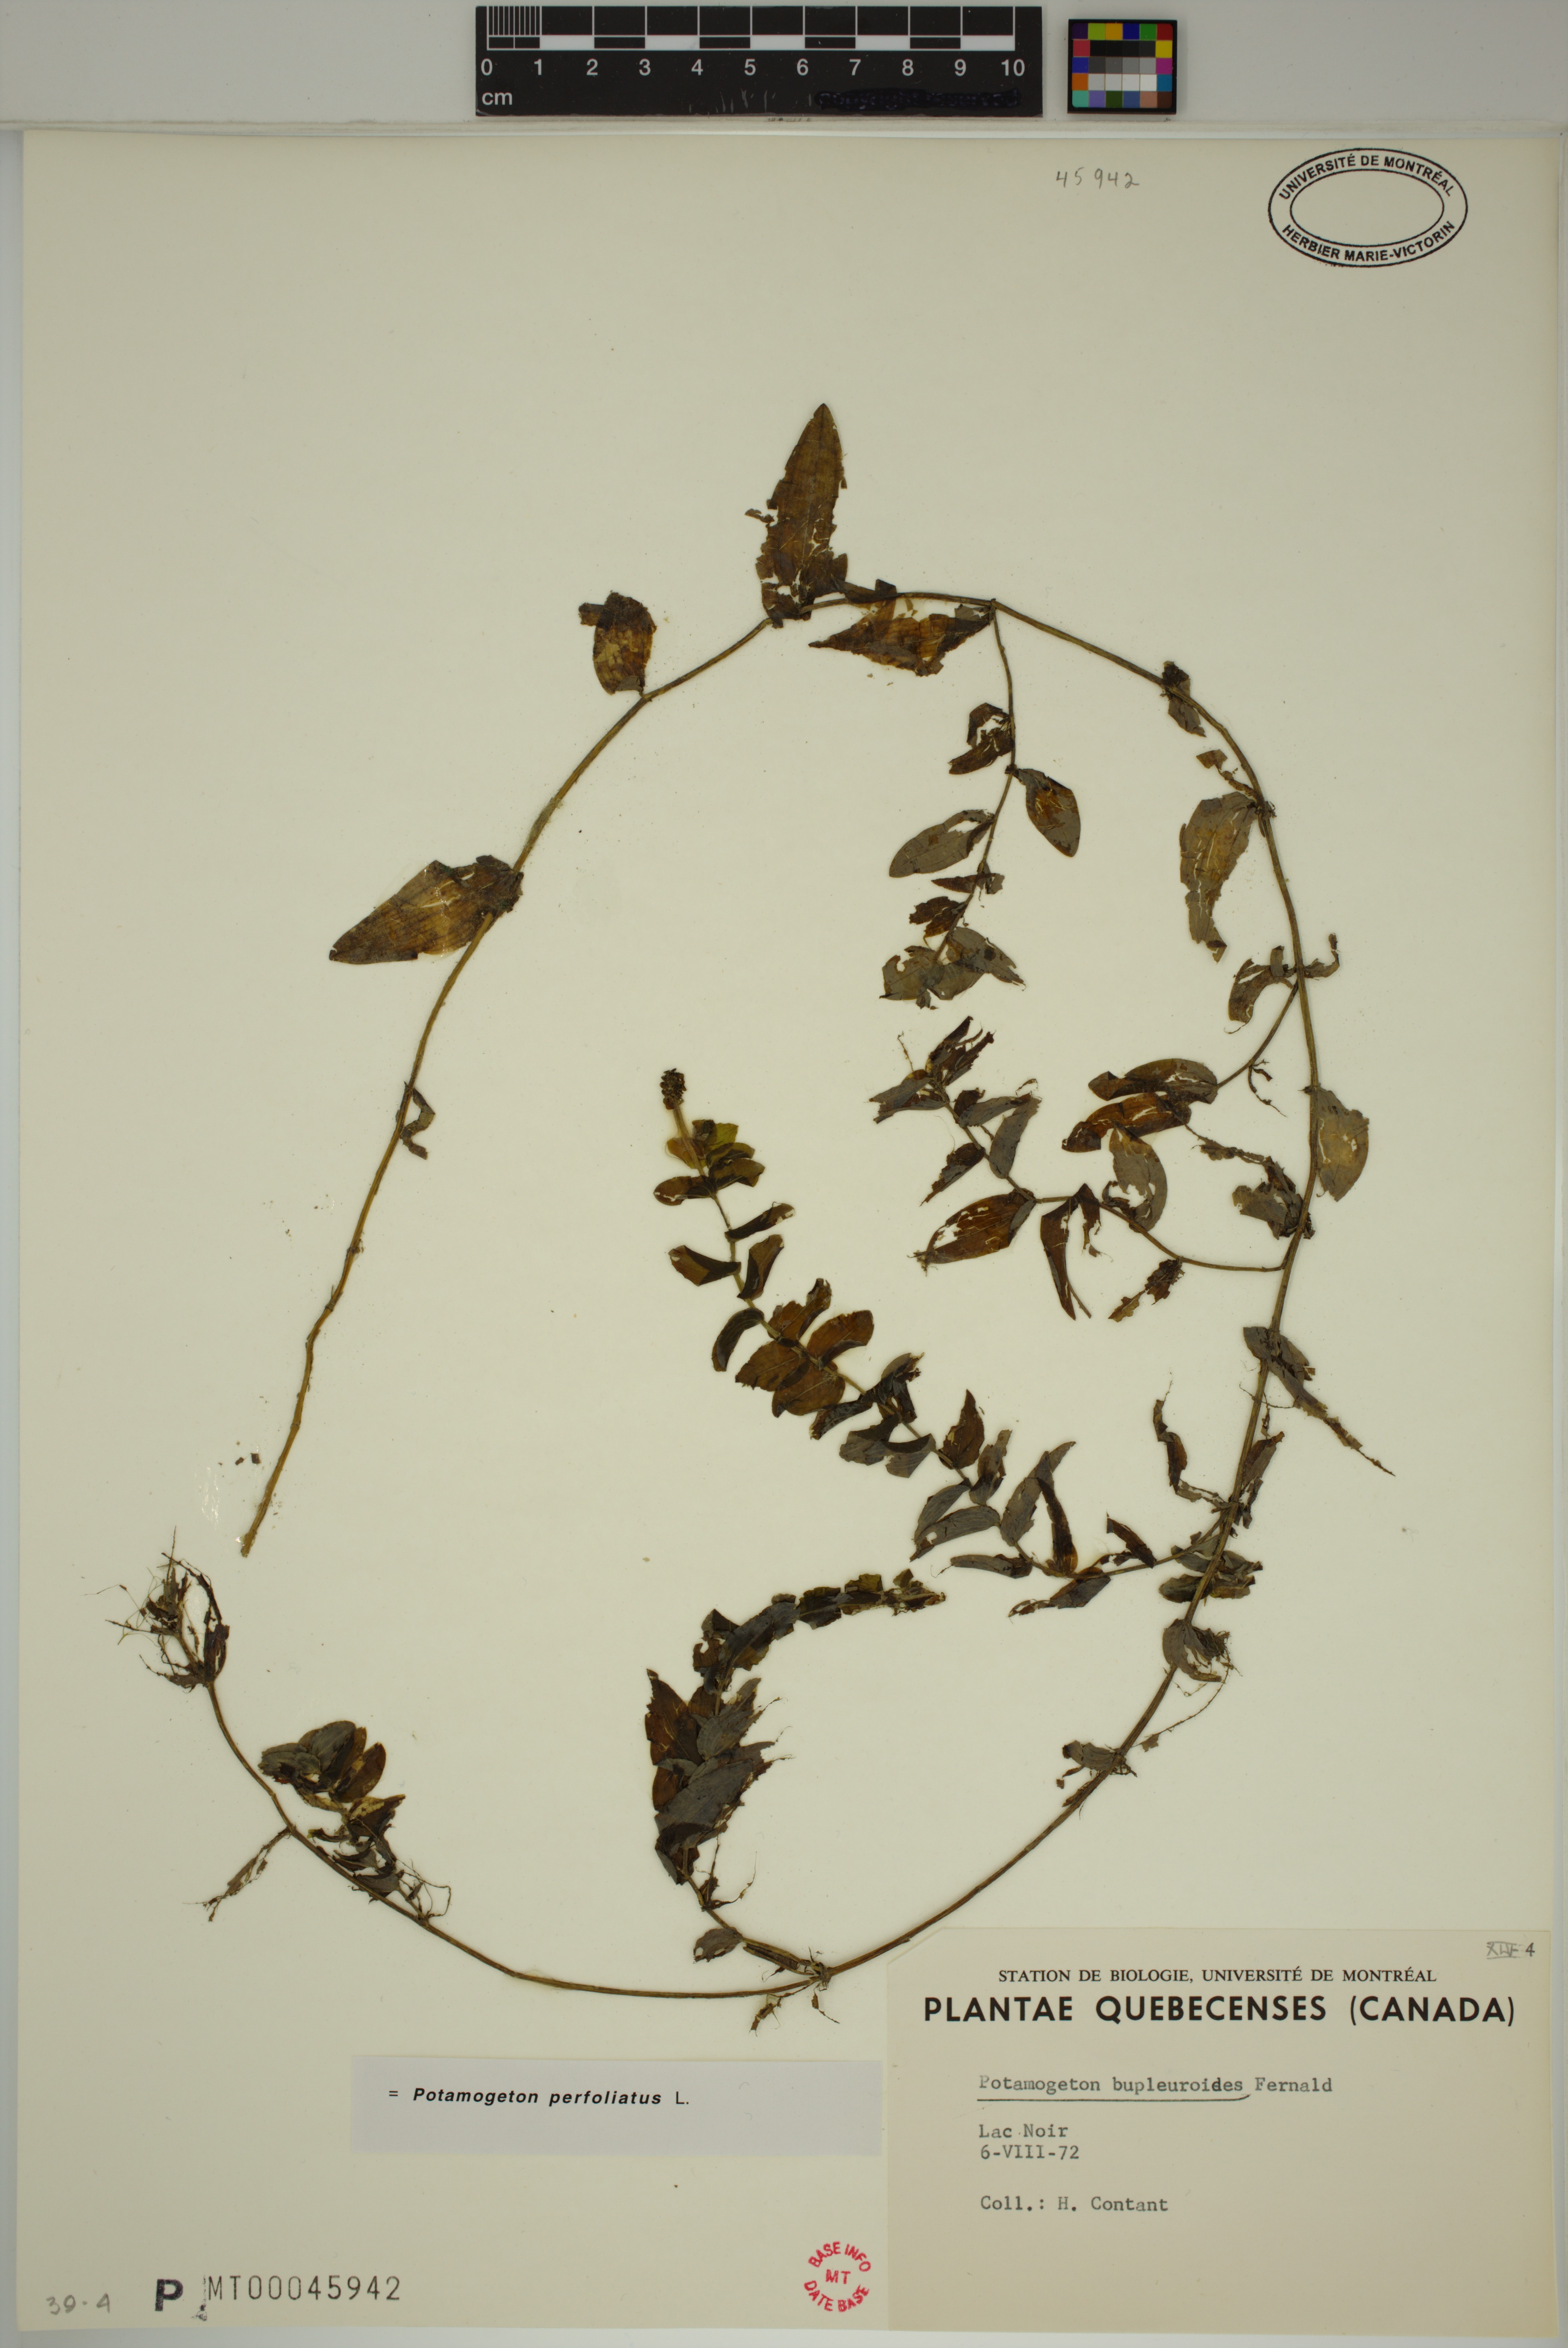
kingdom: Plantae
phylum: Tracheophyta
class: Liliopsida
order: Alismatales
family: Potamogetonaceae
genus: Potamogeton
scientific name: Potamogeton perfoliatus
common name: Perfoliate pondweed
